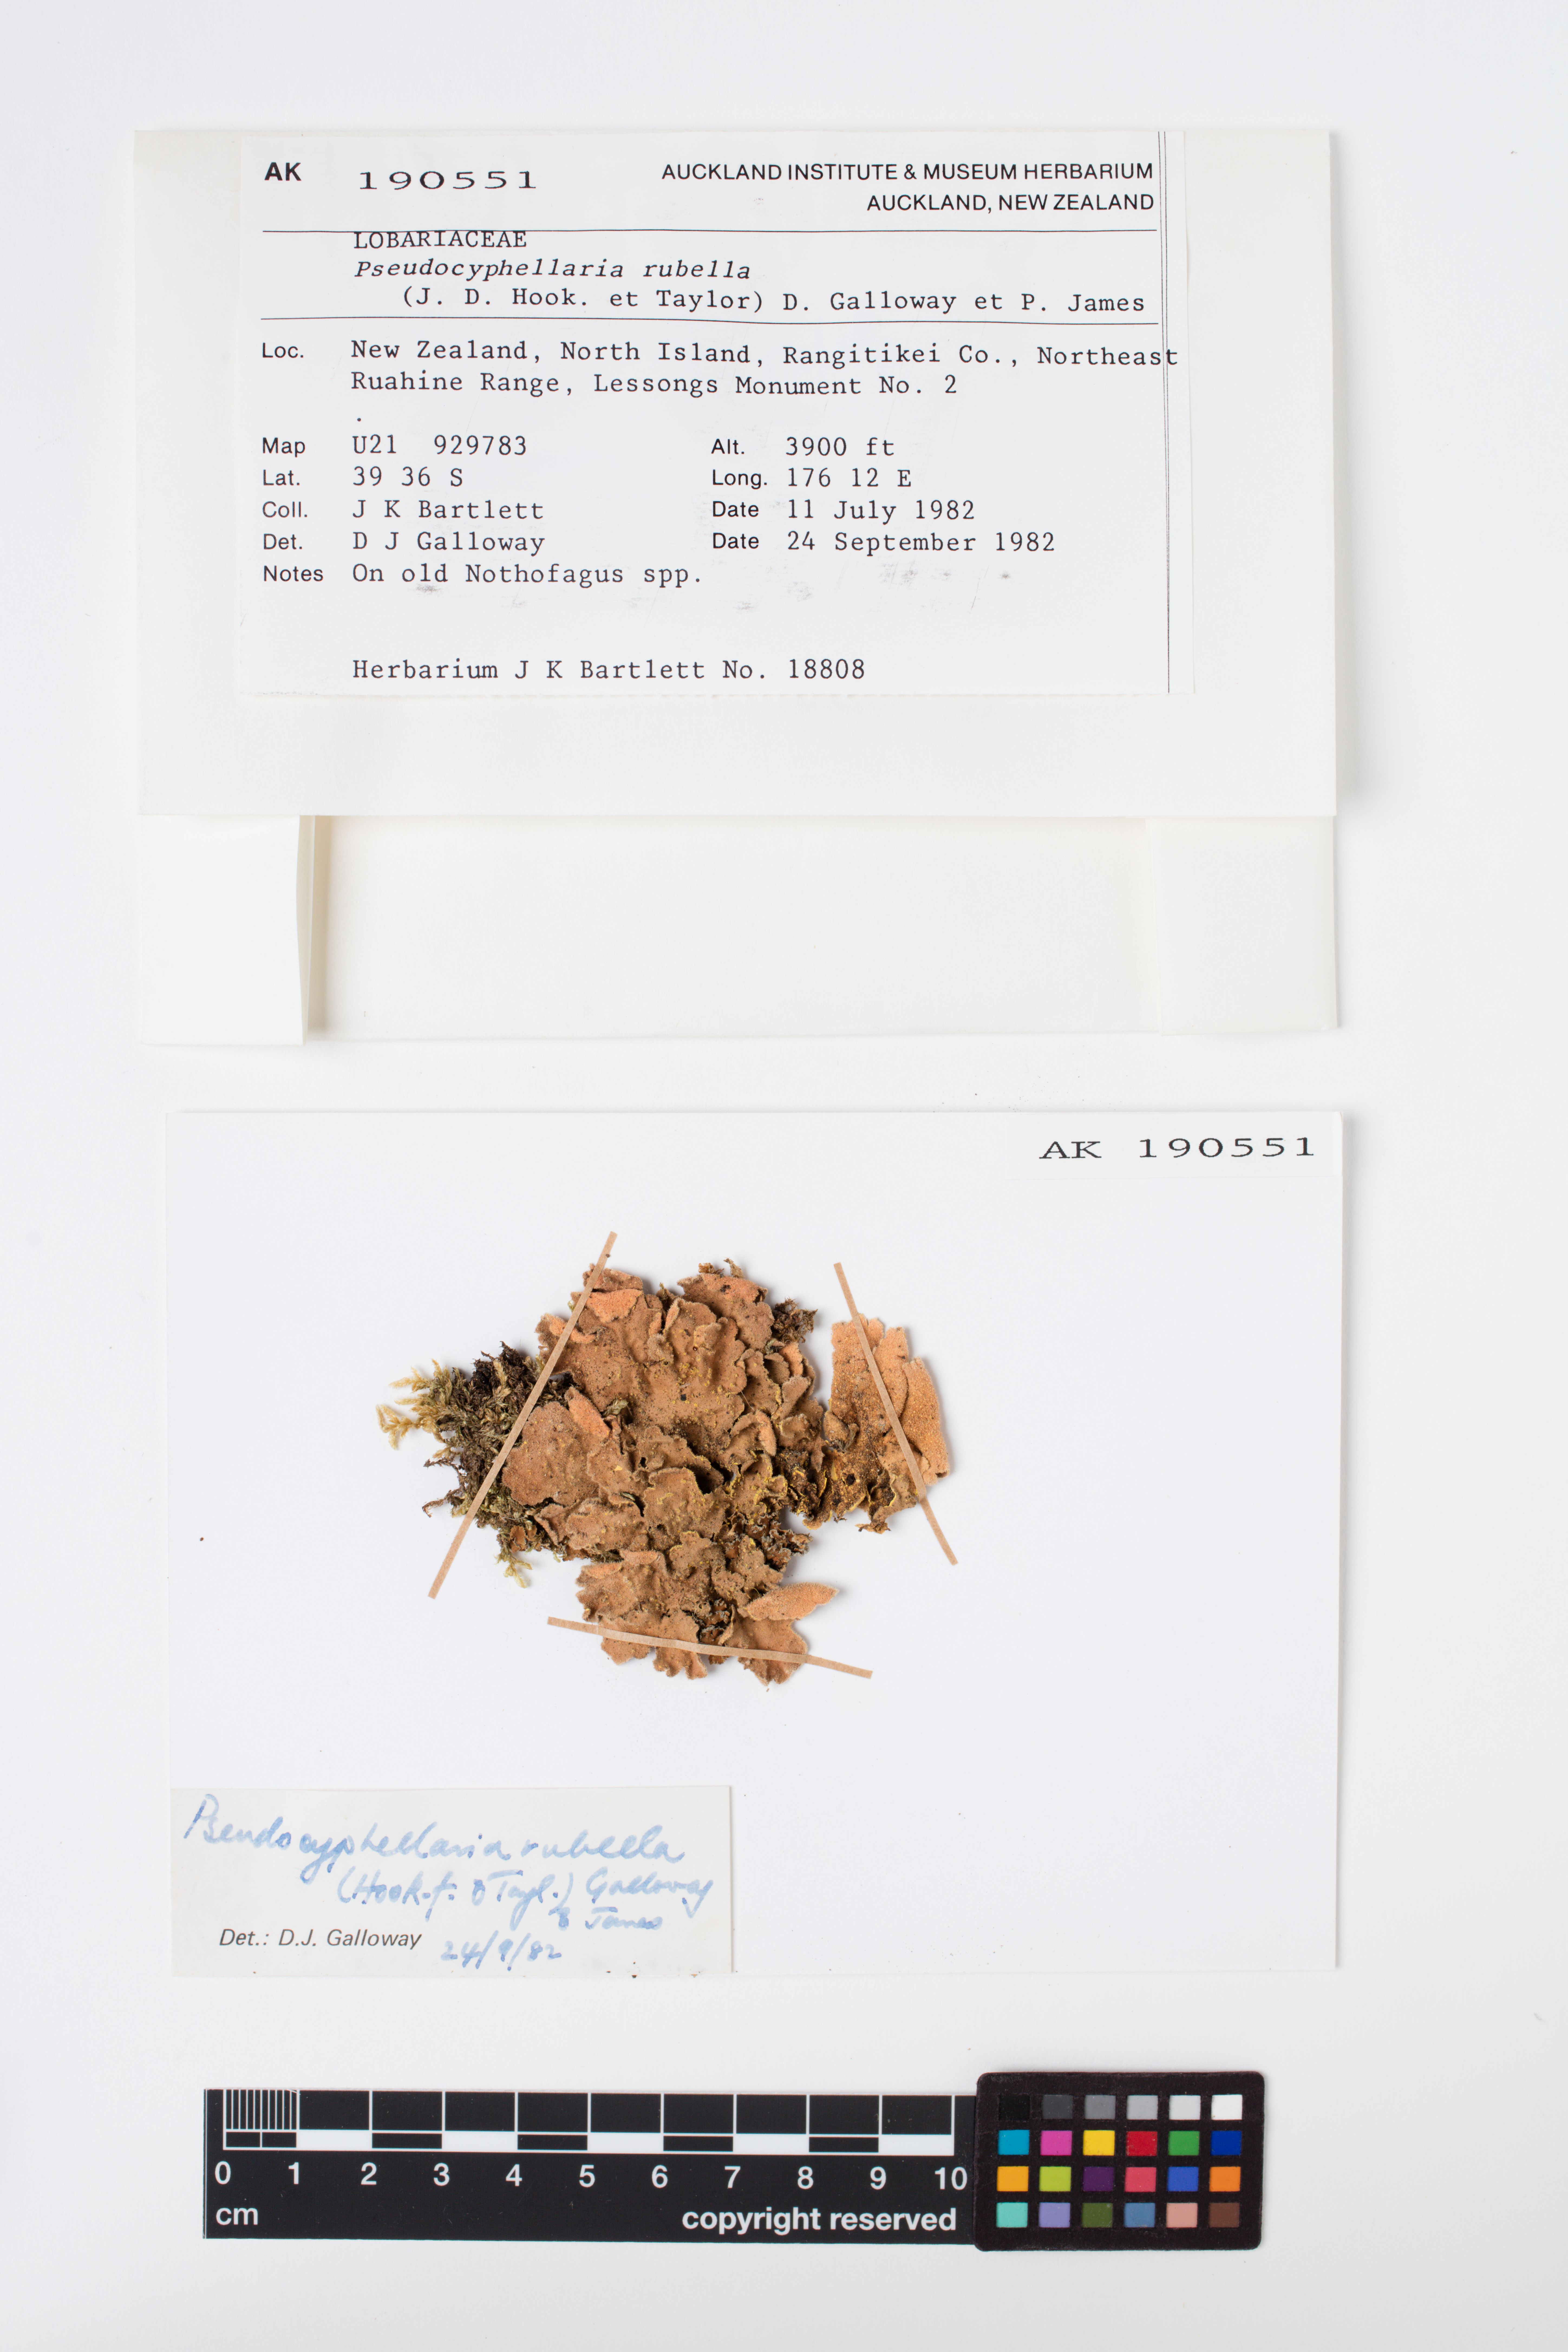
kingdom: Fungi
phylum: Ascomycota
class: Lecanoromycetes
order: Peltigerales
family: Lobariaceae
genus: Pseudocyphellaria
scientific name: Pseudocyphellaria rubella
